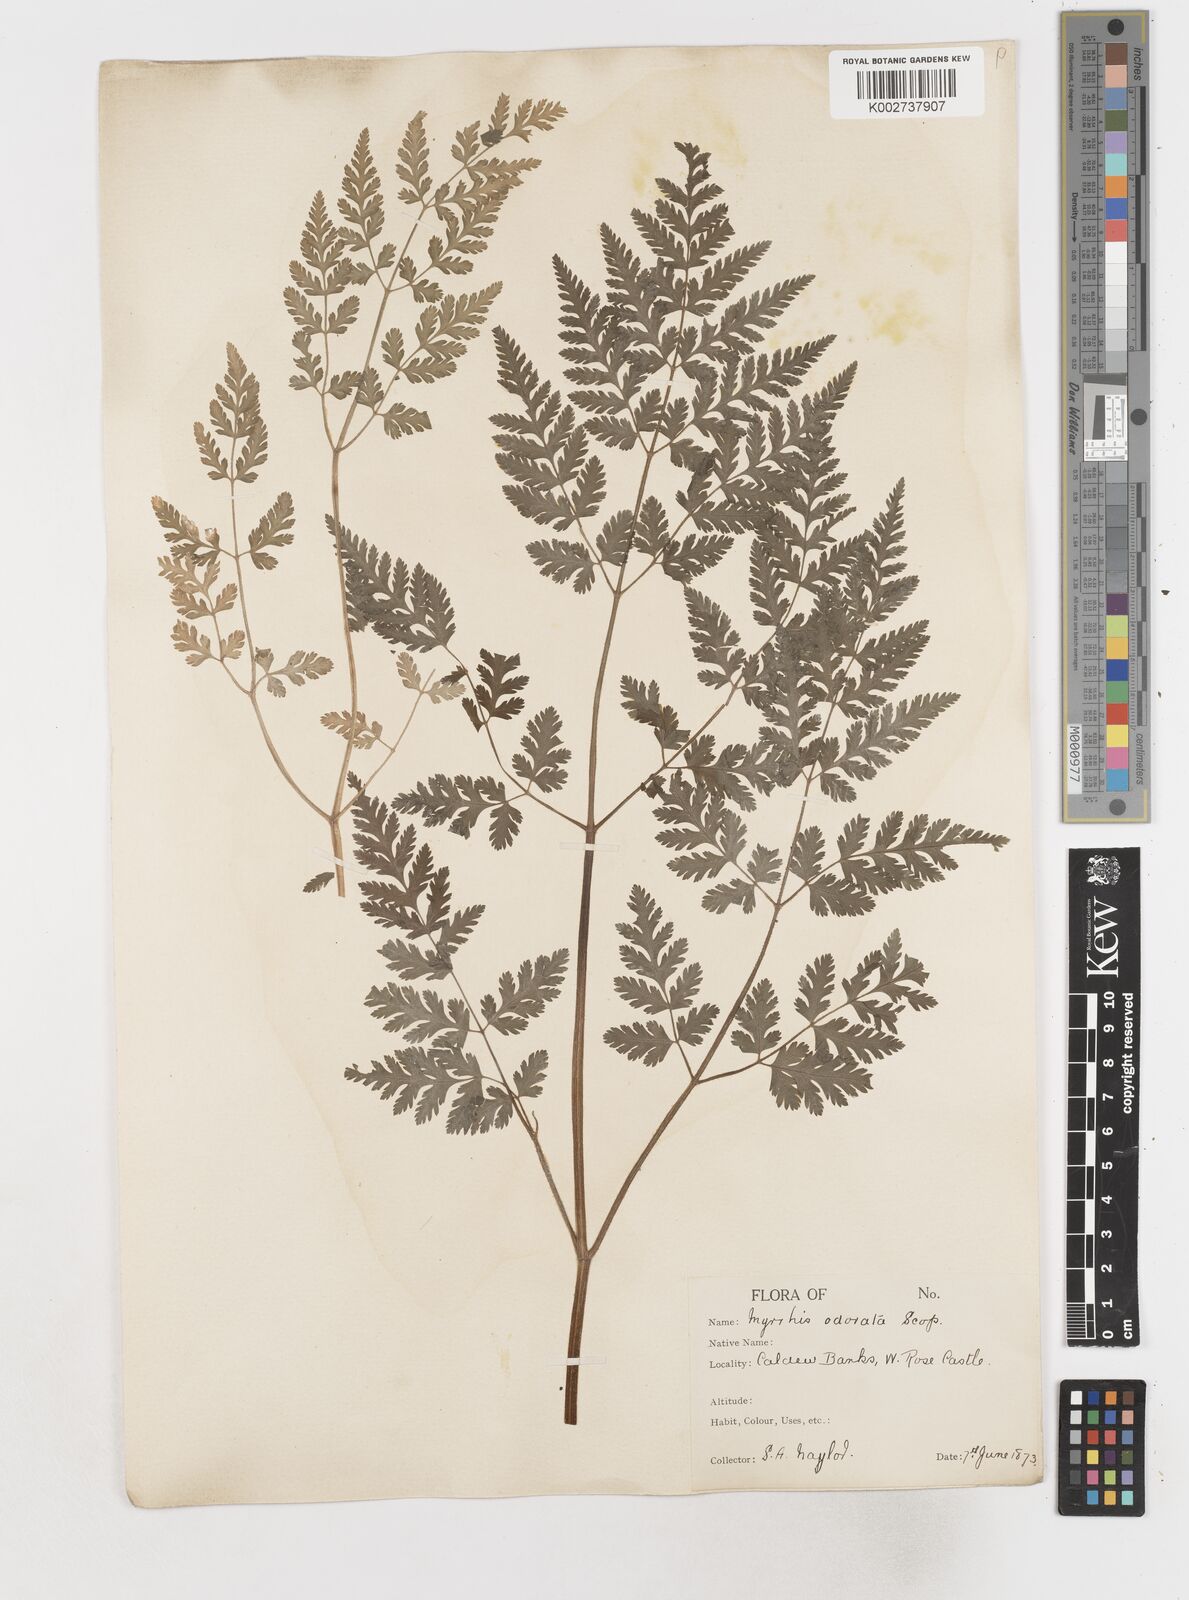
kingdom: Plantae
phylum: Tracheophyta
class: Magnoliopsida
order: Apiales
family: Apiaceae
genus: Myrrhis
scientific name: Myrrhis odorata
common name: Sweet cicely
